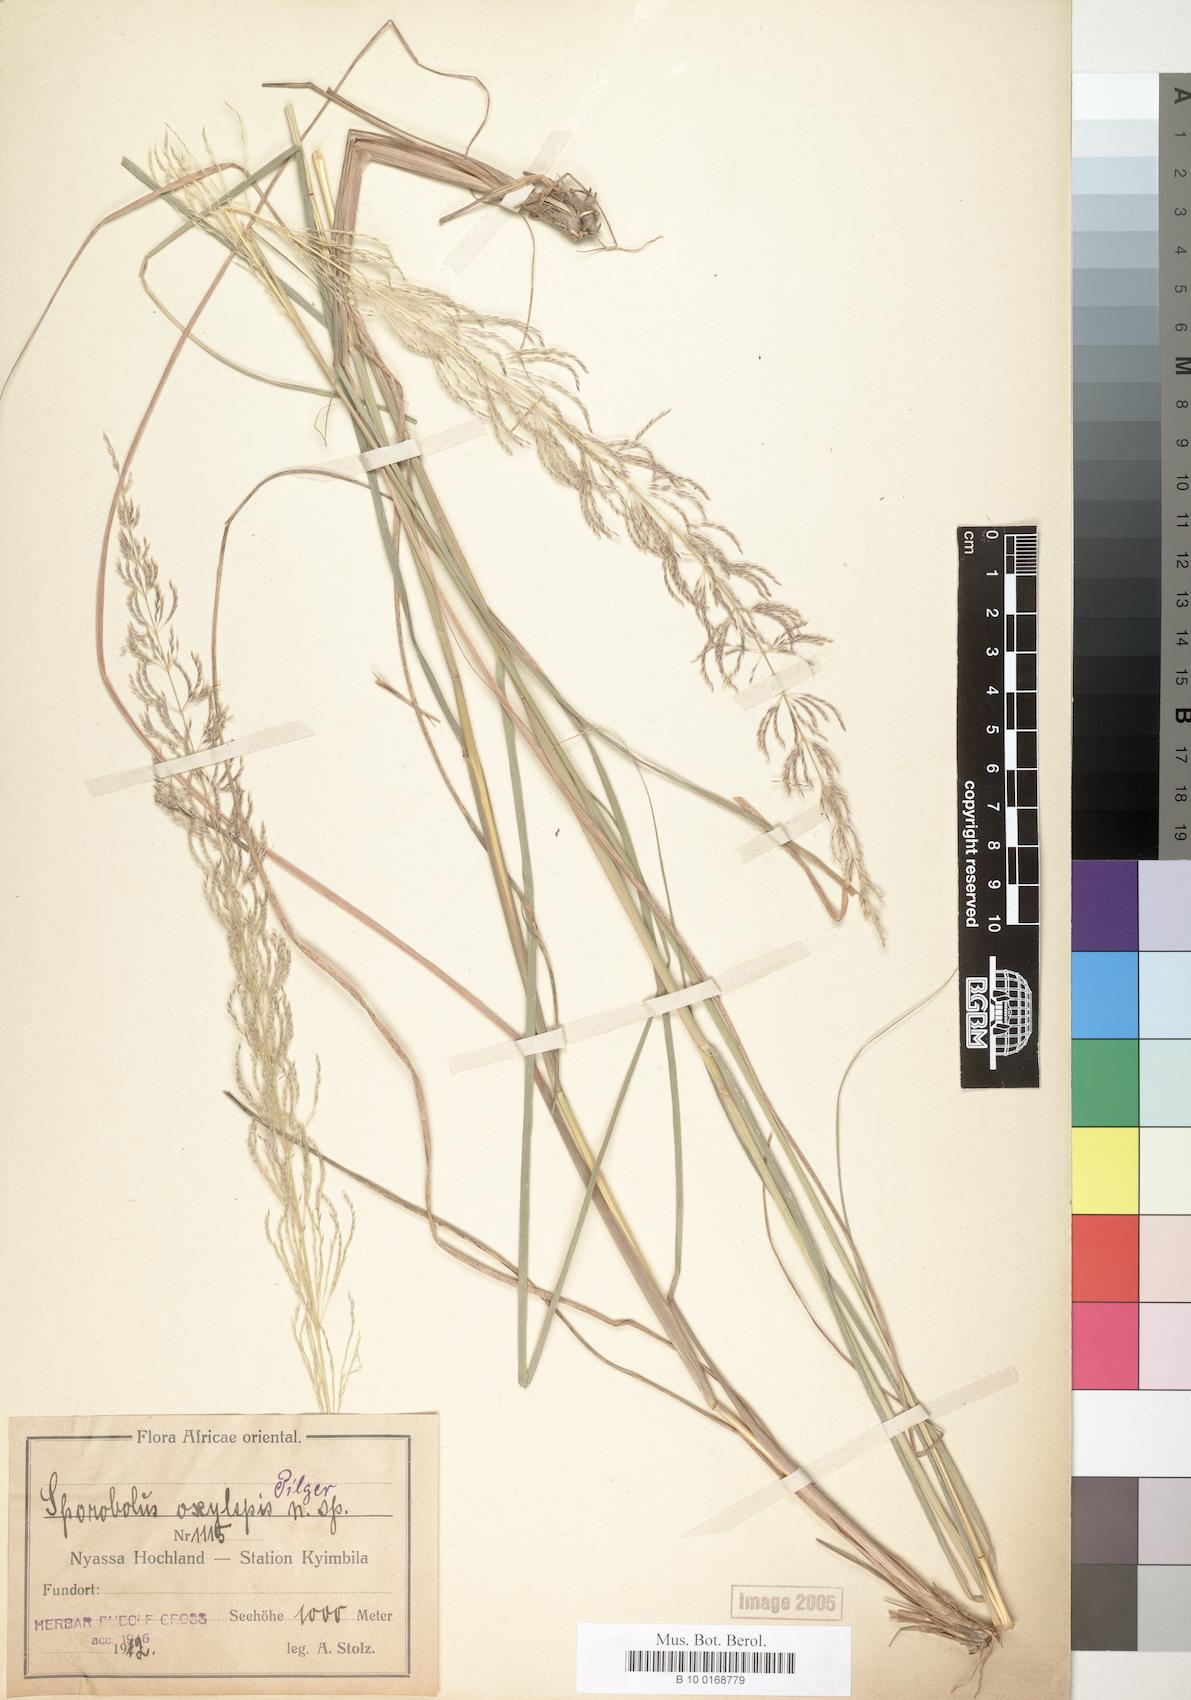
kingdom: Plantae
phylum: Tracheophyta
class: Liliopsida
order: Poales
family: Poaceae
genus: Sporobolus
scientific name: Sporobolus sanguineus
